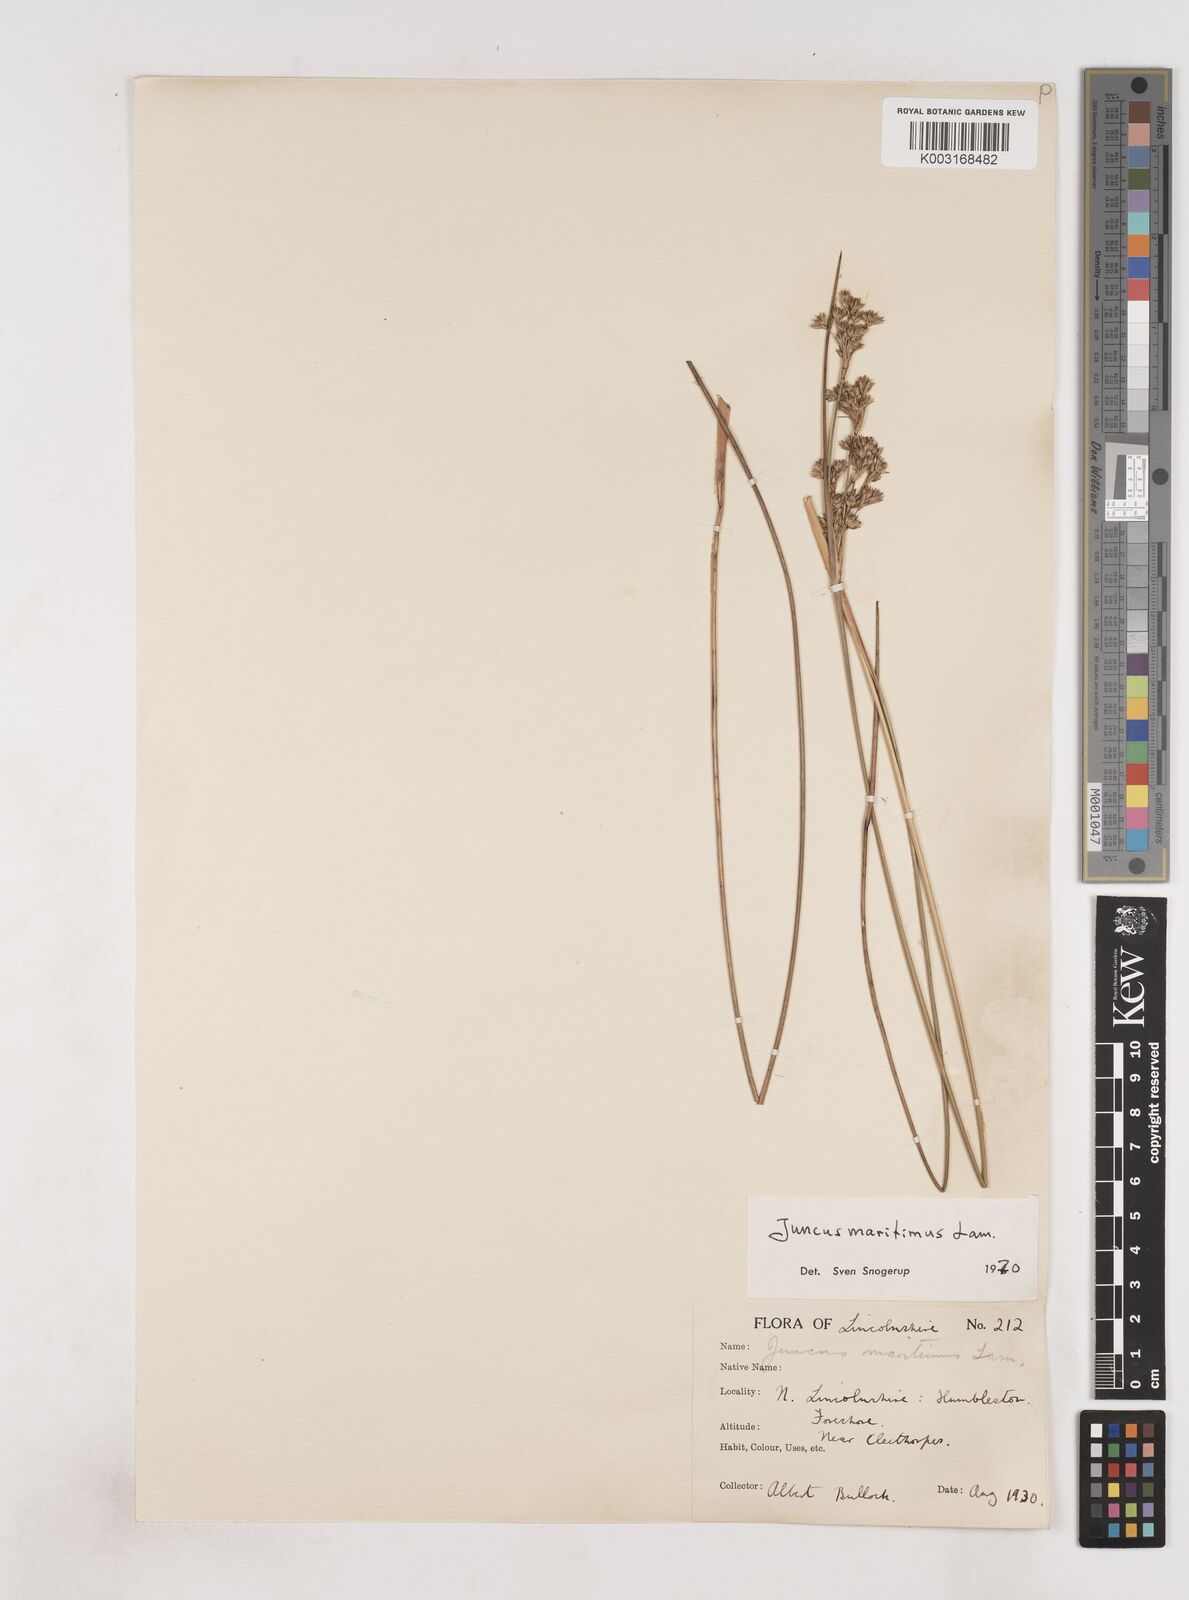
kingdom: Plantae
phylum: Tracheophyta
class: Liliopsida
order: Poales
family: Juncaceae
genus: Juncus
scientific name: Juncus maritimus
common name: Sea rush
